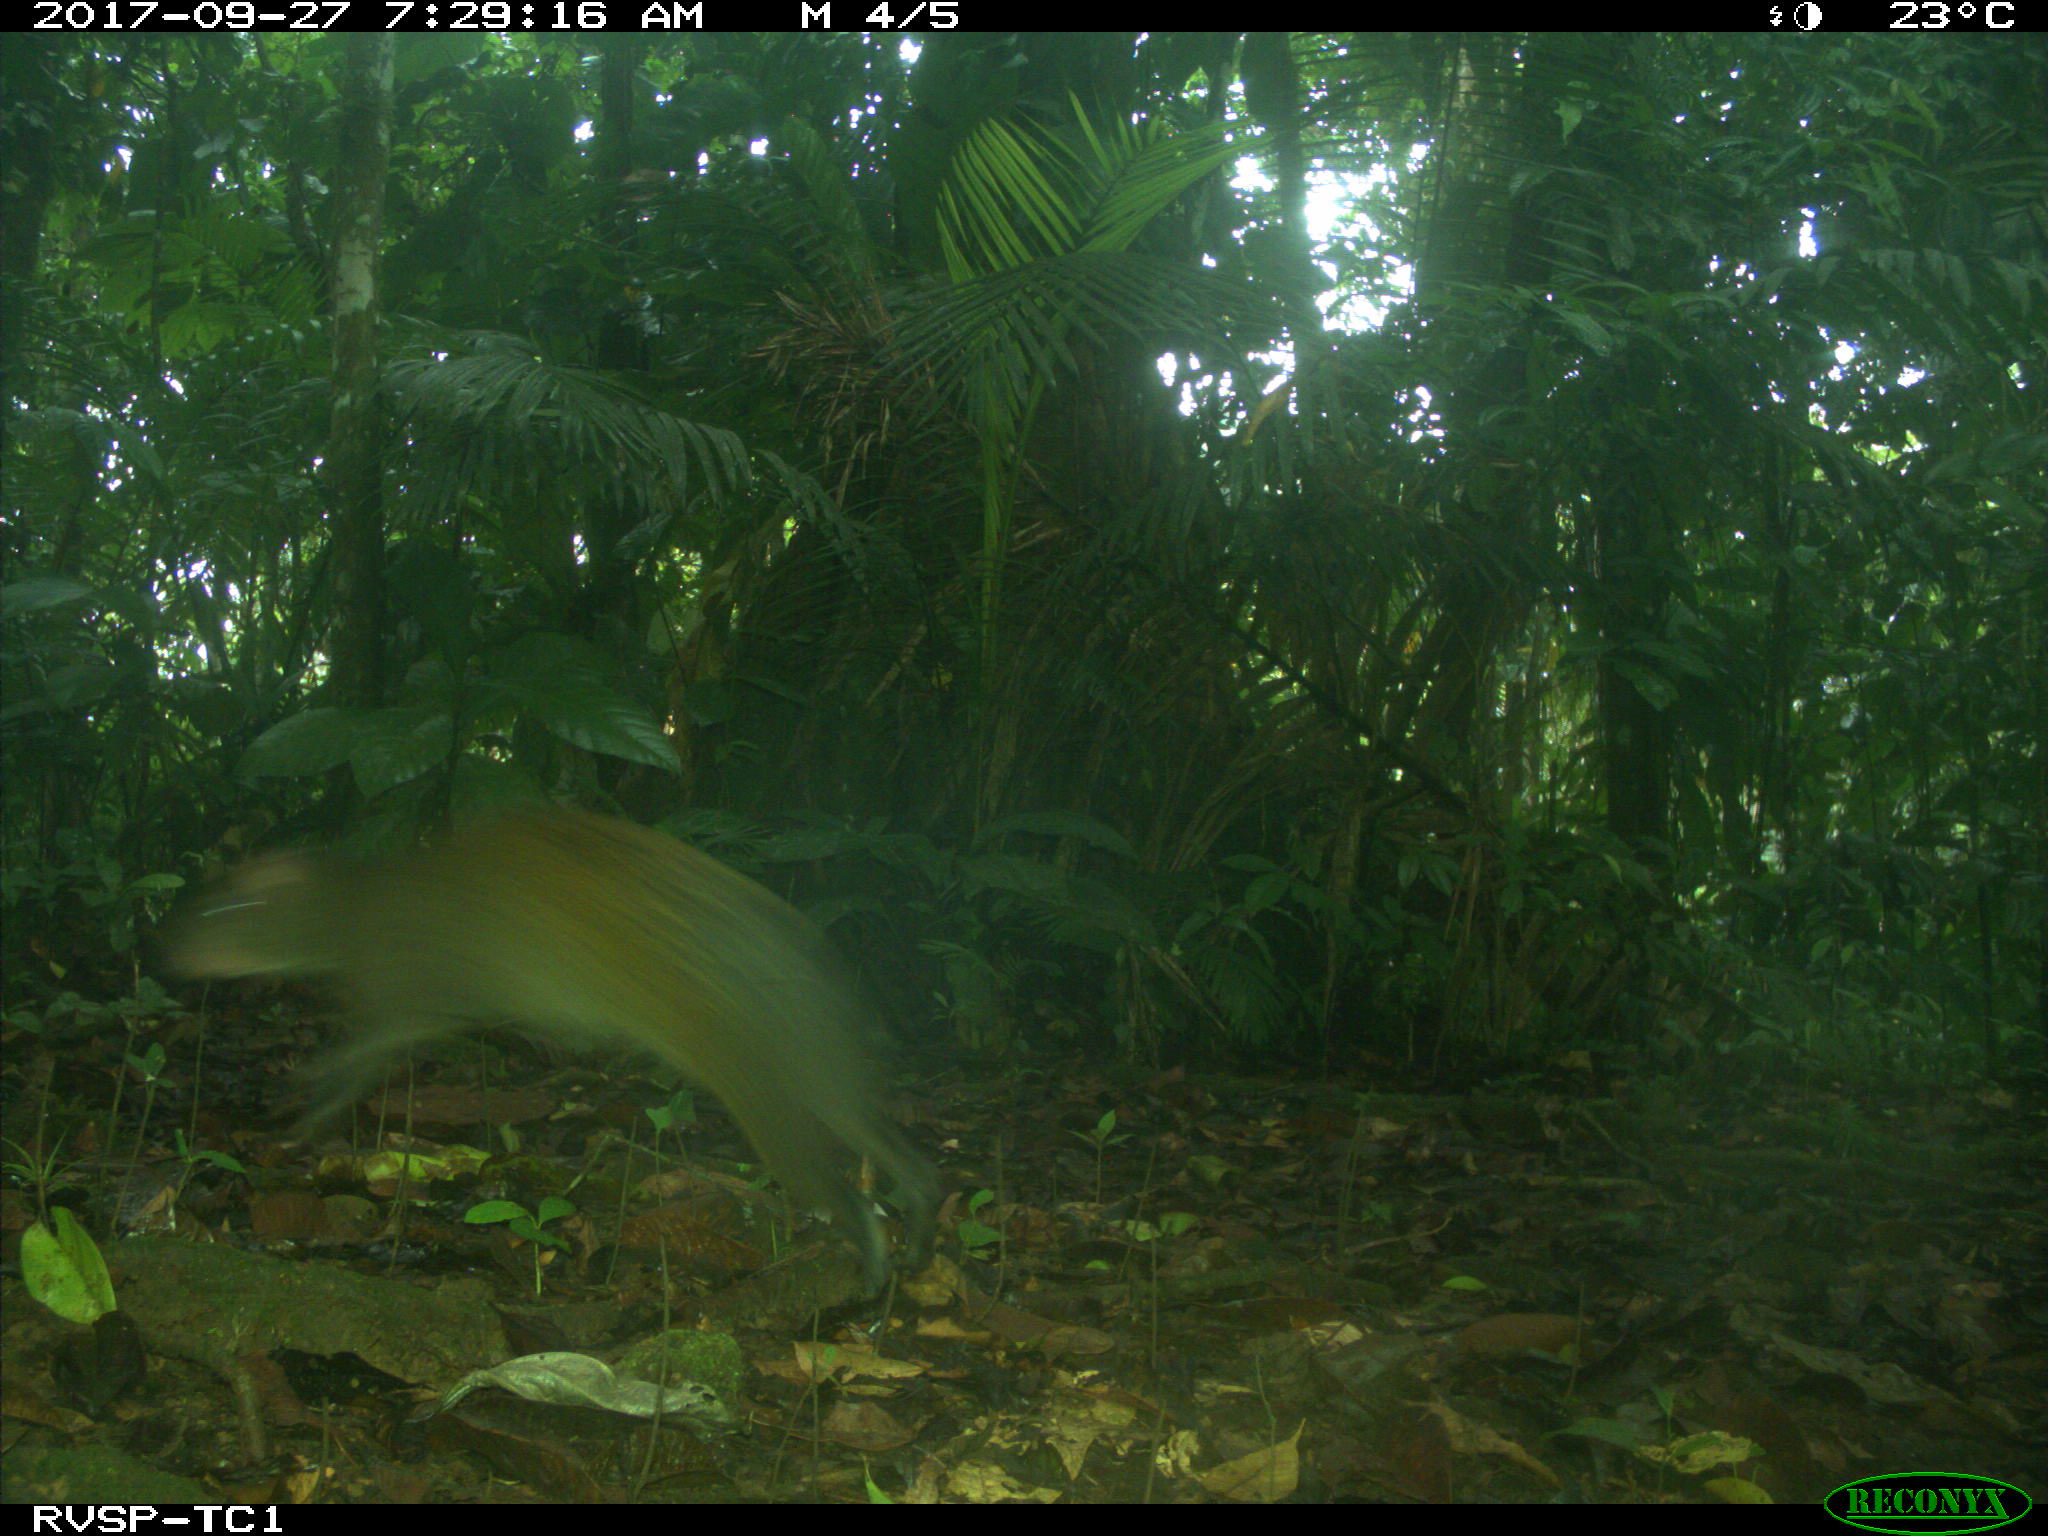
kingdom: Animalia
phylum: Chordata
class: Mammalia
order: Rodentia
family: Dasyproctidae
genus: Dasyprocta
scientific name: Dasyprocta punctata
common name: Central american agouti
